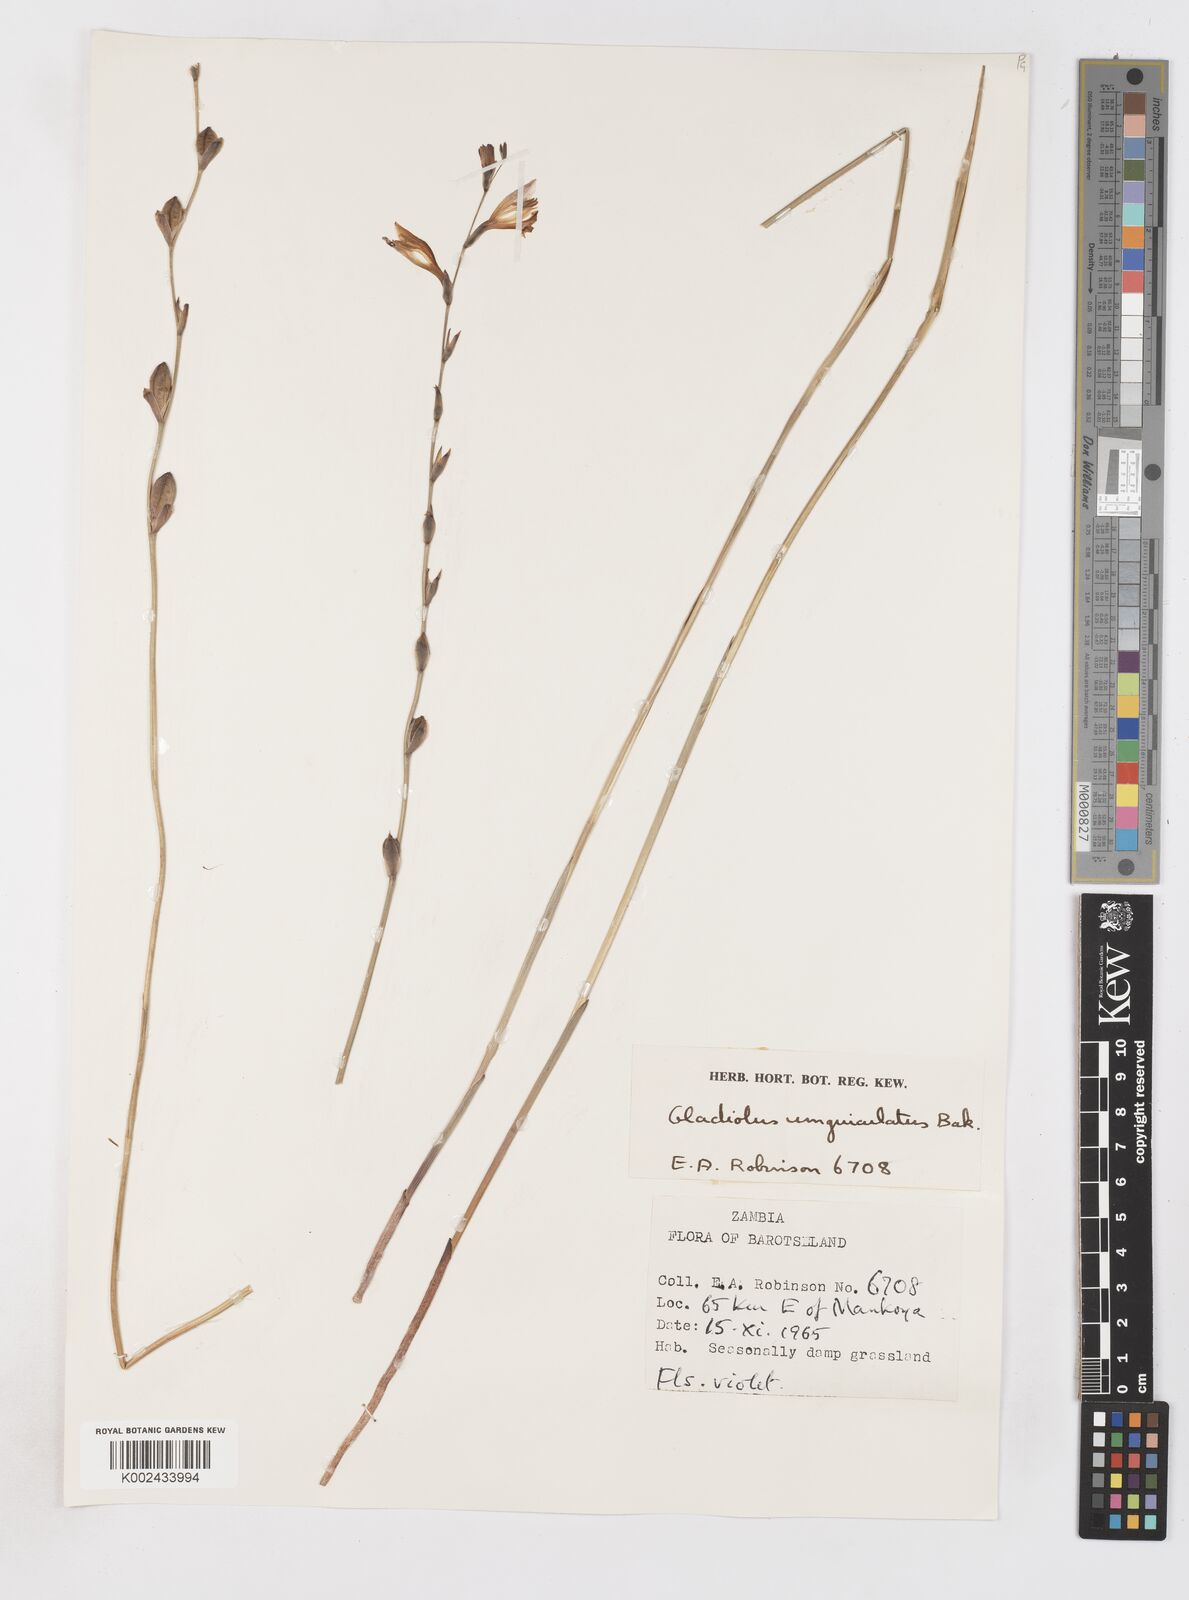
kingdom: Plantae
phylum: Tracheophyta
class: Liliopsida
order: Asparagales
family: Iridaceae
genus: Gladiolus
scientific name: Gladiolus atropurpureus
